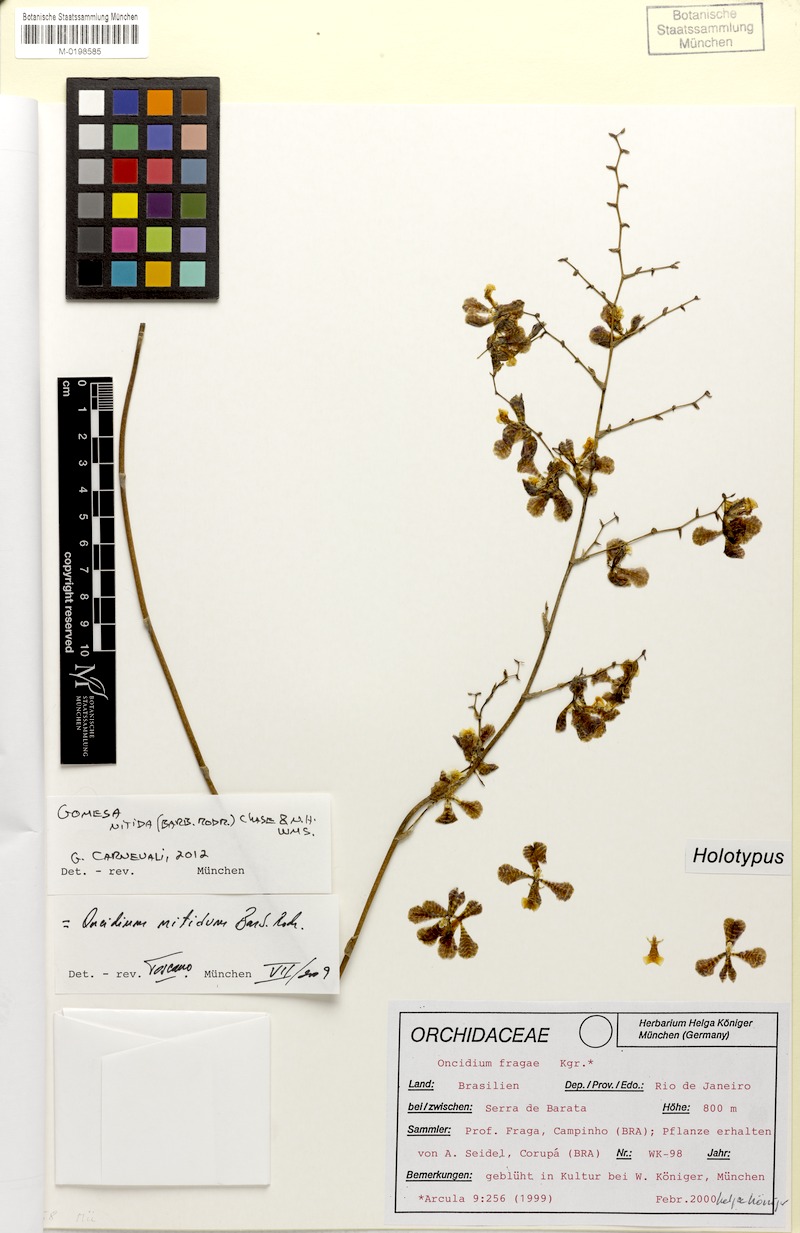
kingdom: Plantae
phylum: Tracheophyta
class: Liliopsida
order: Asparagales
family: Orchidaceae
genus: Gomesa
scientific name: Gomesa nitida
